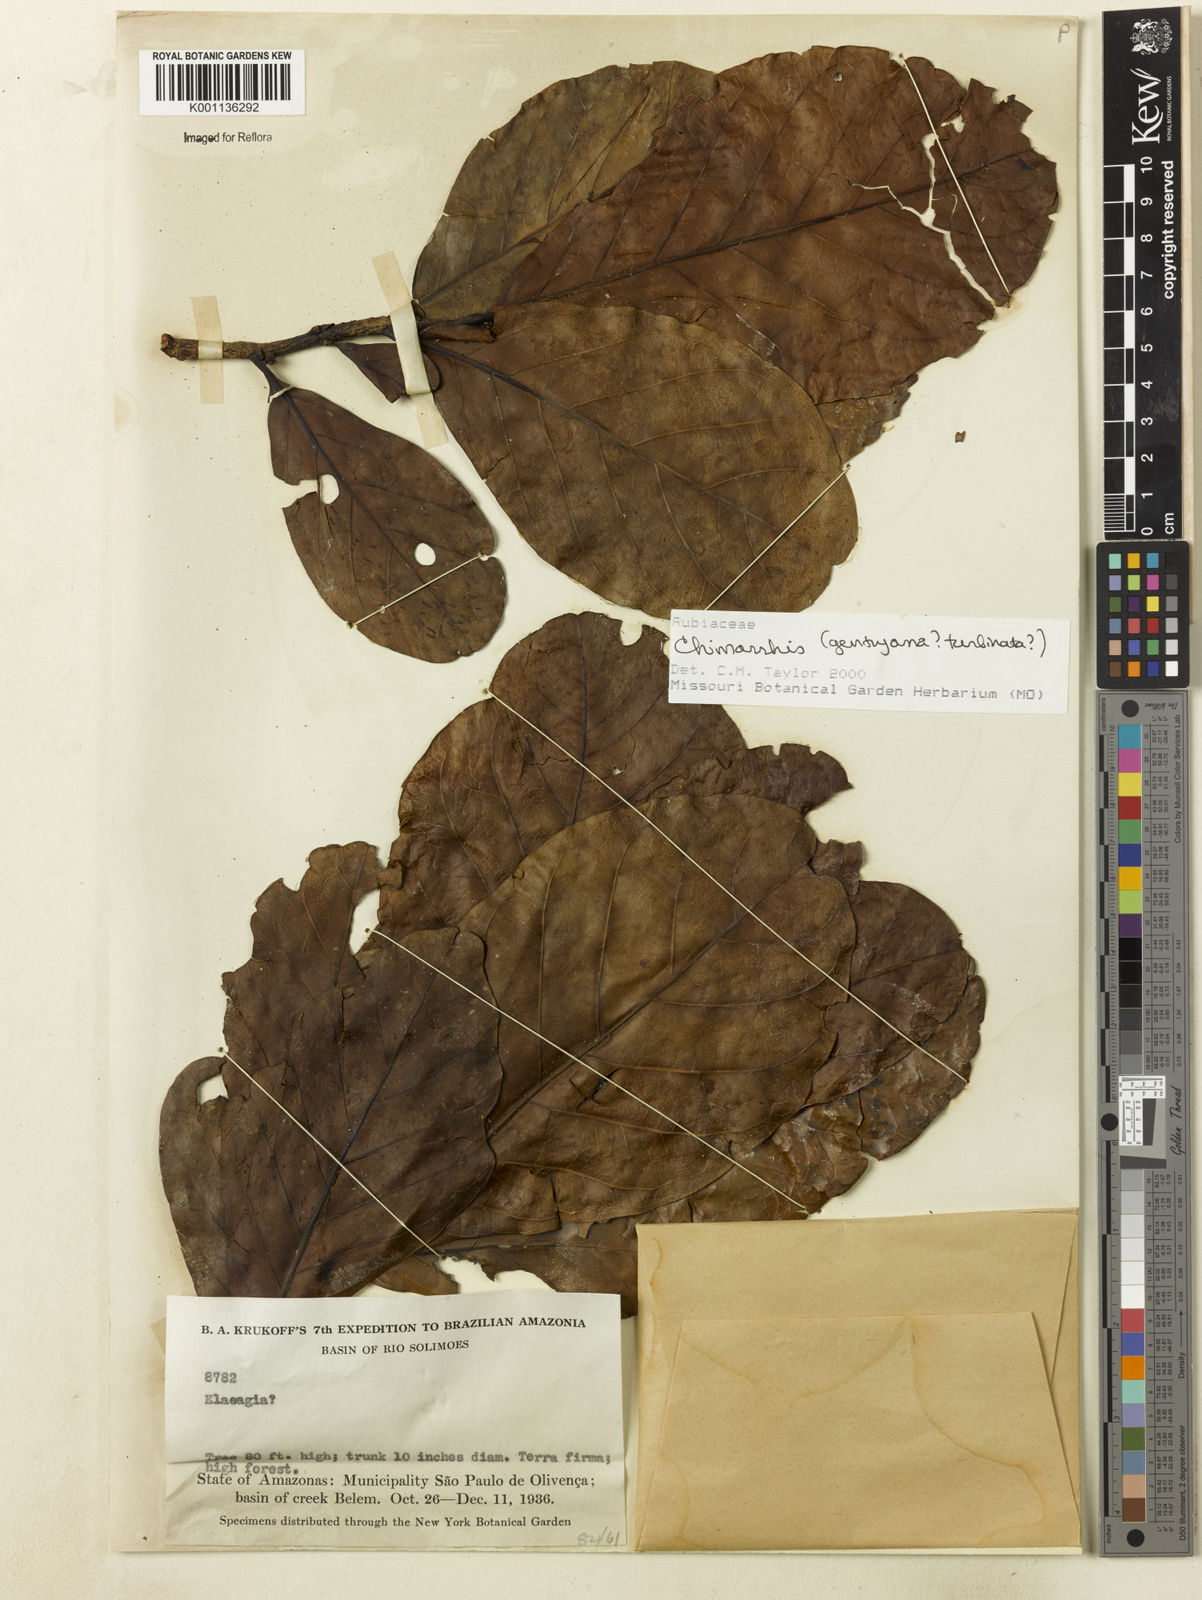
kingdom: Plantae
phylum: Tracheophyta
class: Magnoliopsida
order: Gentianales
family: Rubiaceae
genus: Chimarrhis
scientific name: Chimarrhis
